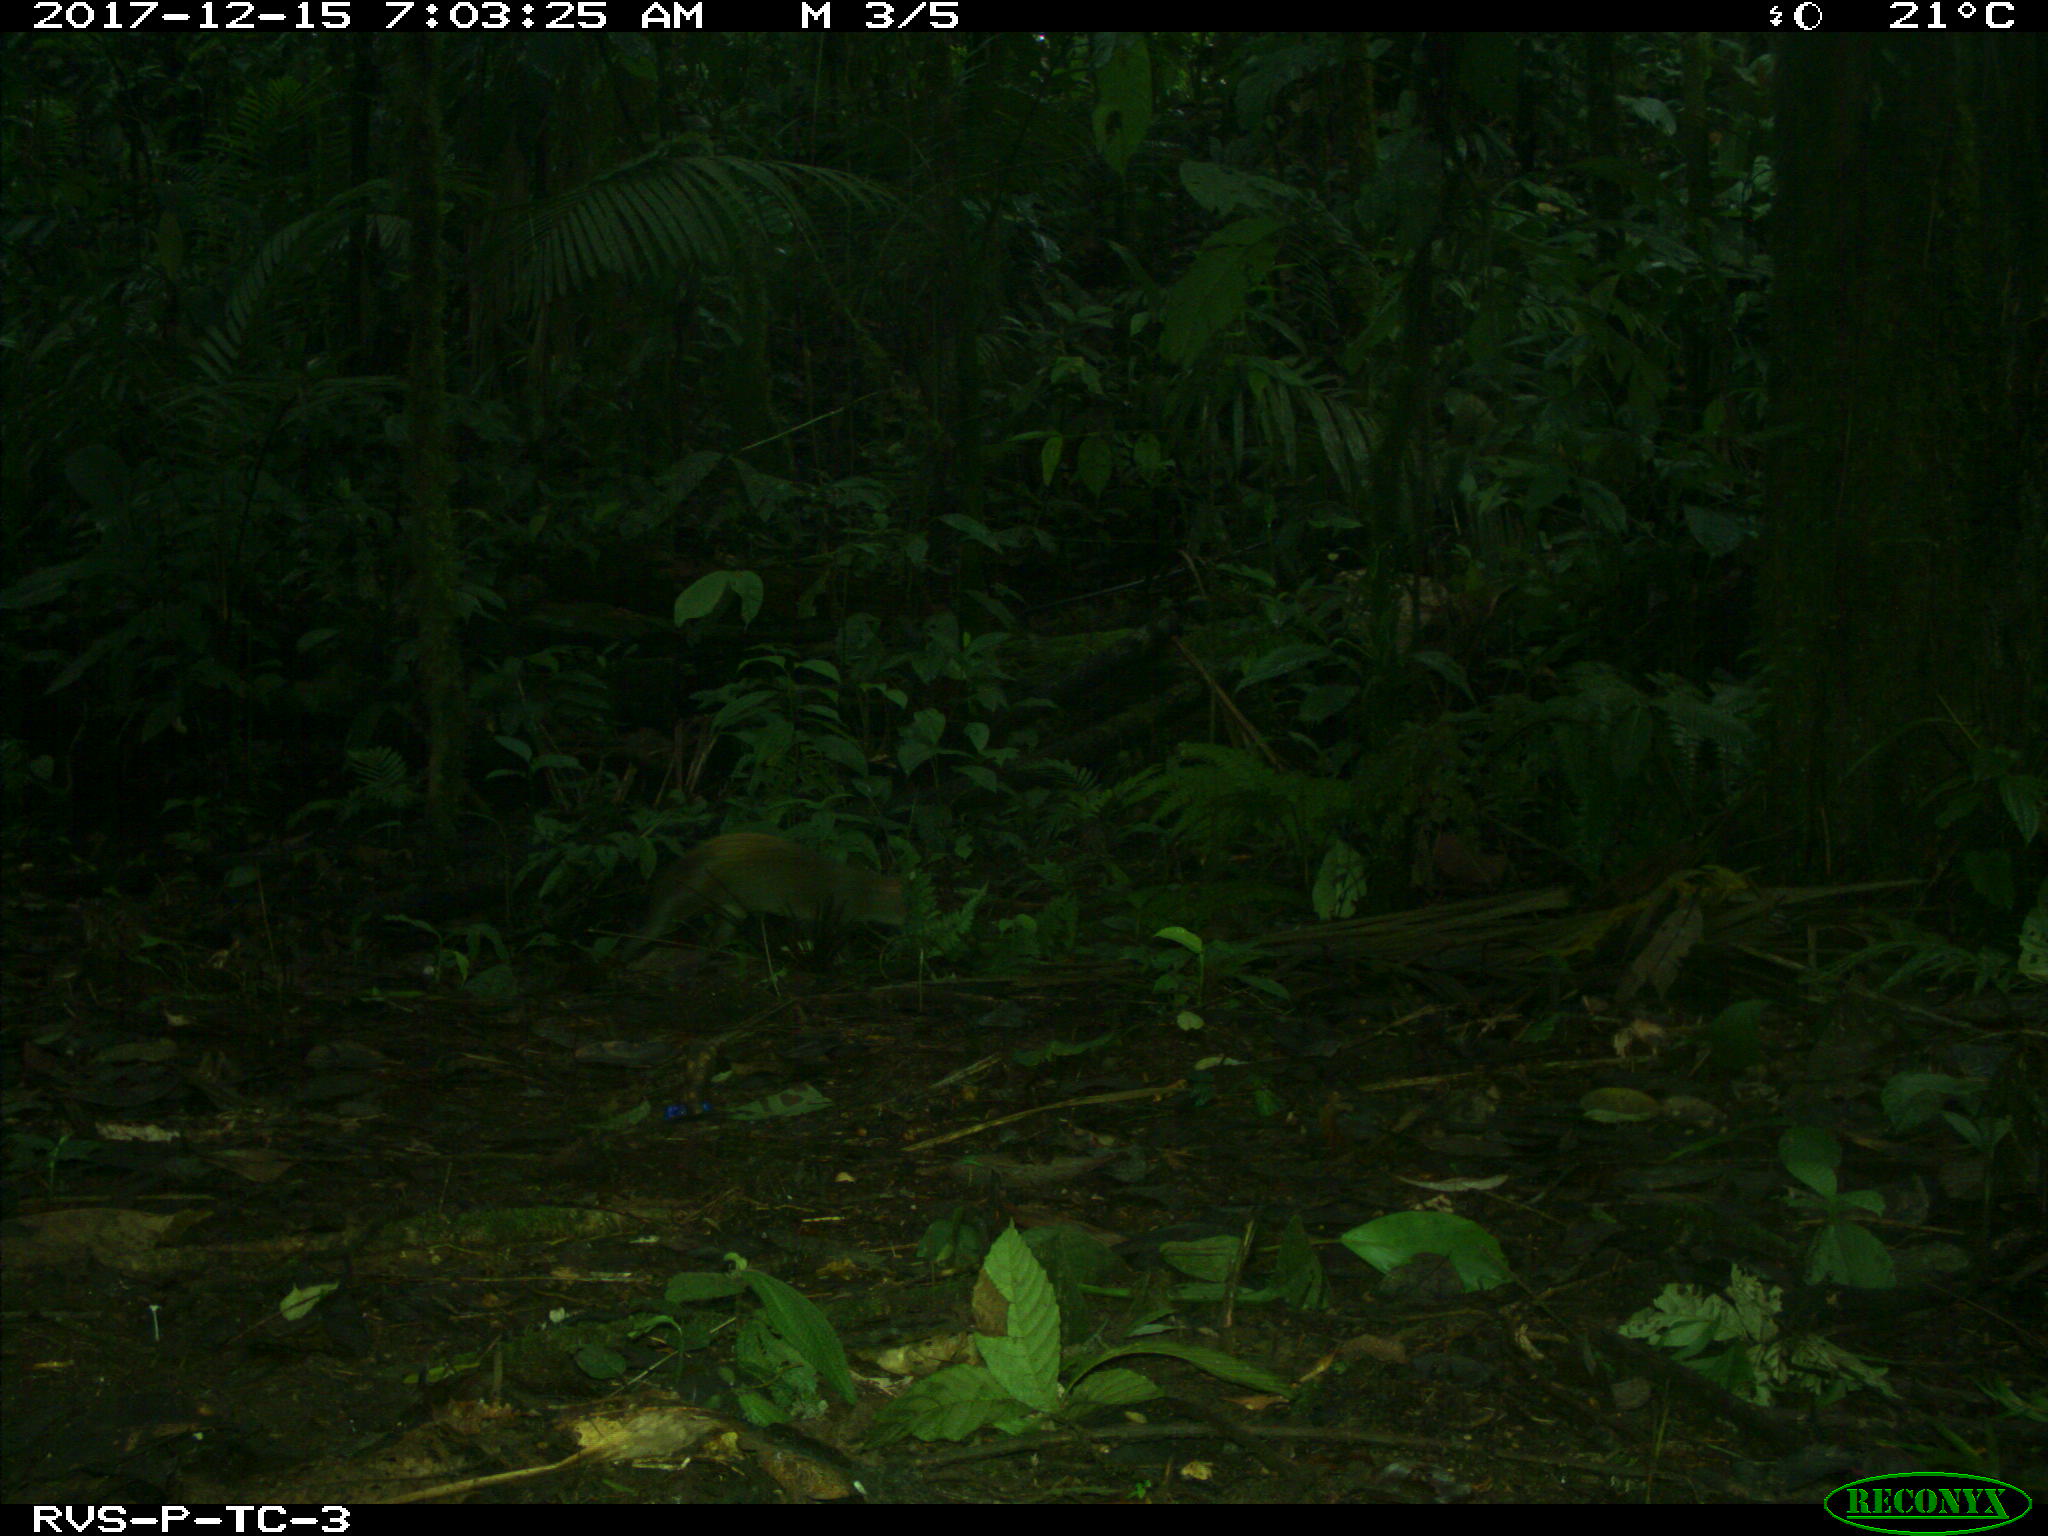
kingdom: Animalia
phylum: Chordata
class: Mammalia
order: Rodentia
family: Dasyproctidae
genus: Dasyprocta
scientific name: Dasyprocta punctata
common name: Central american agouti
